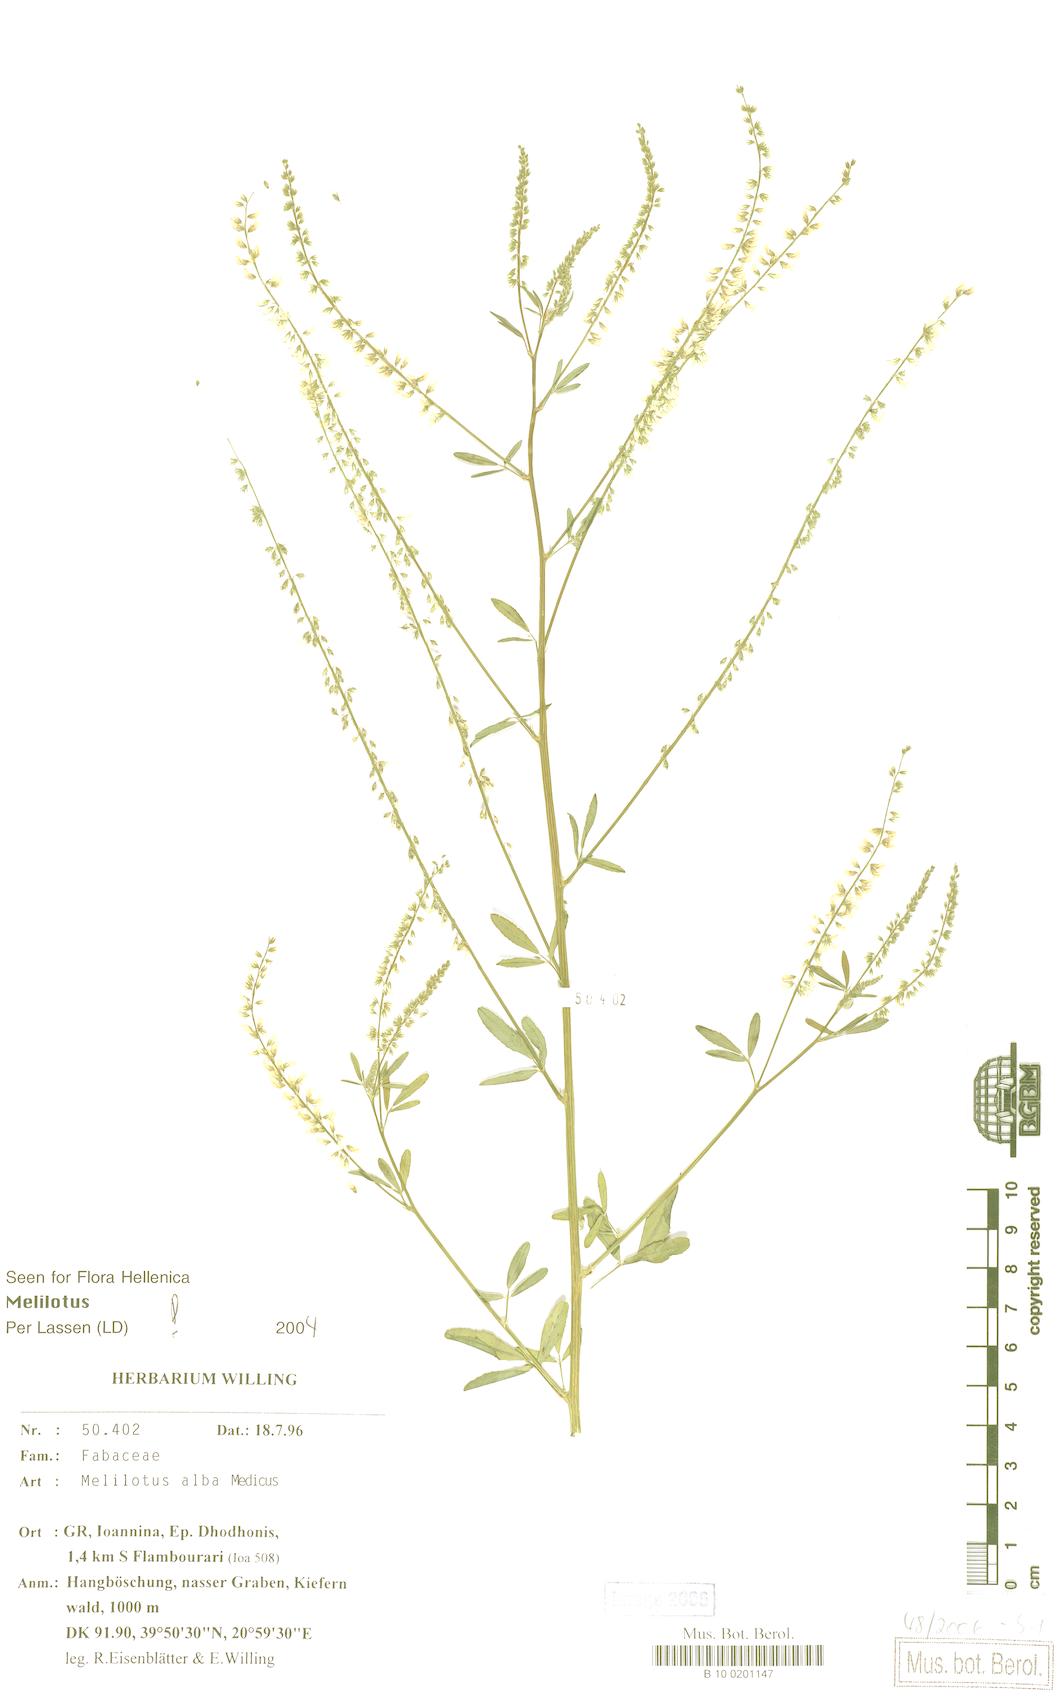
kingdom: Plantae
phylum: Tracheophyta
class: Magnoliopsida
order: Fabales
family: Fabaceae
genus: Melilotus
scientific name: Melilotus albus
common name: White melilot
